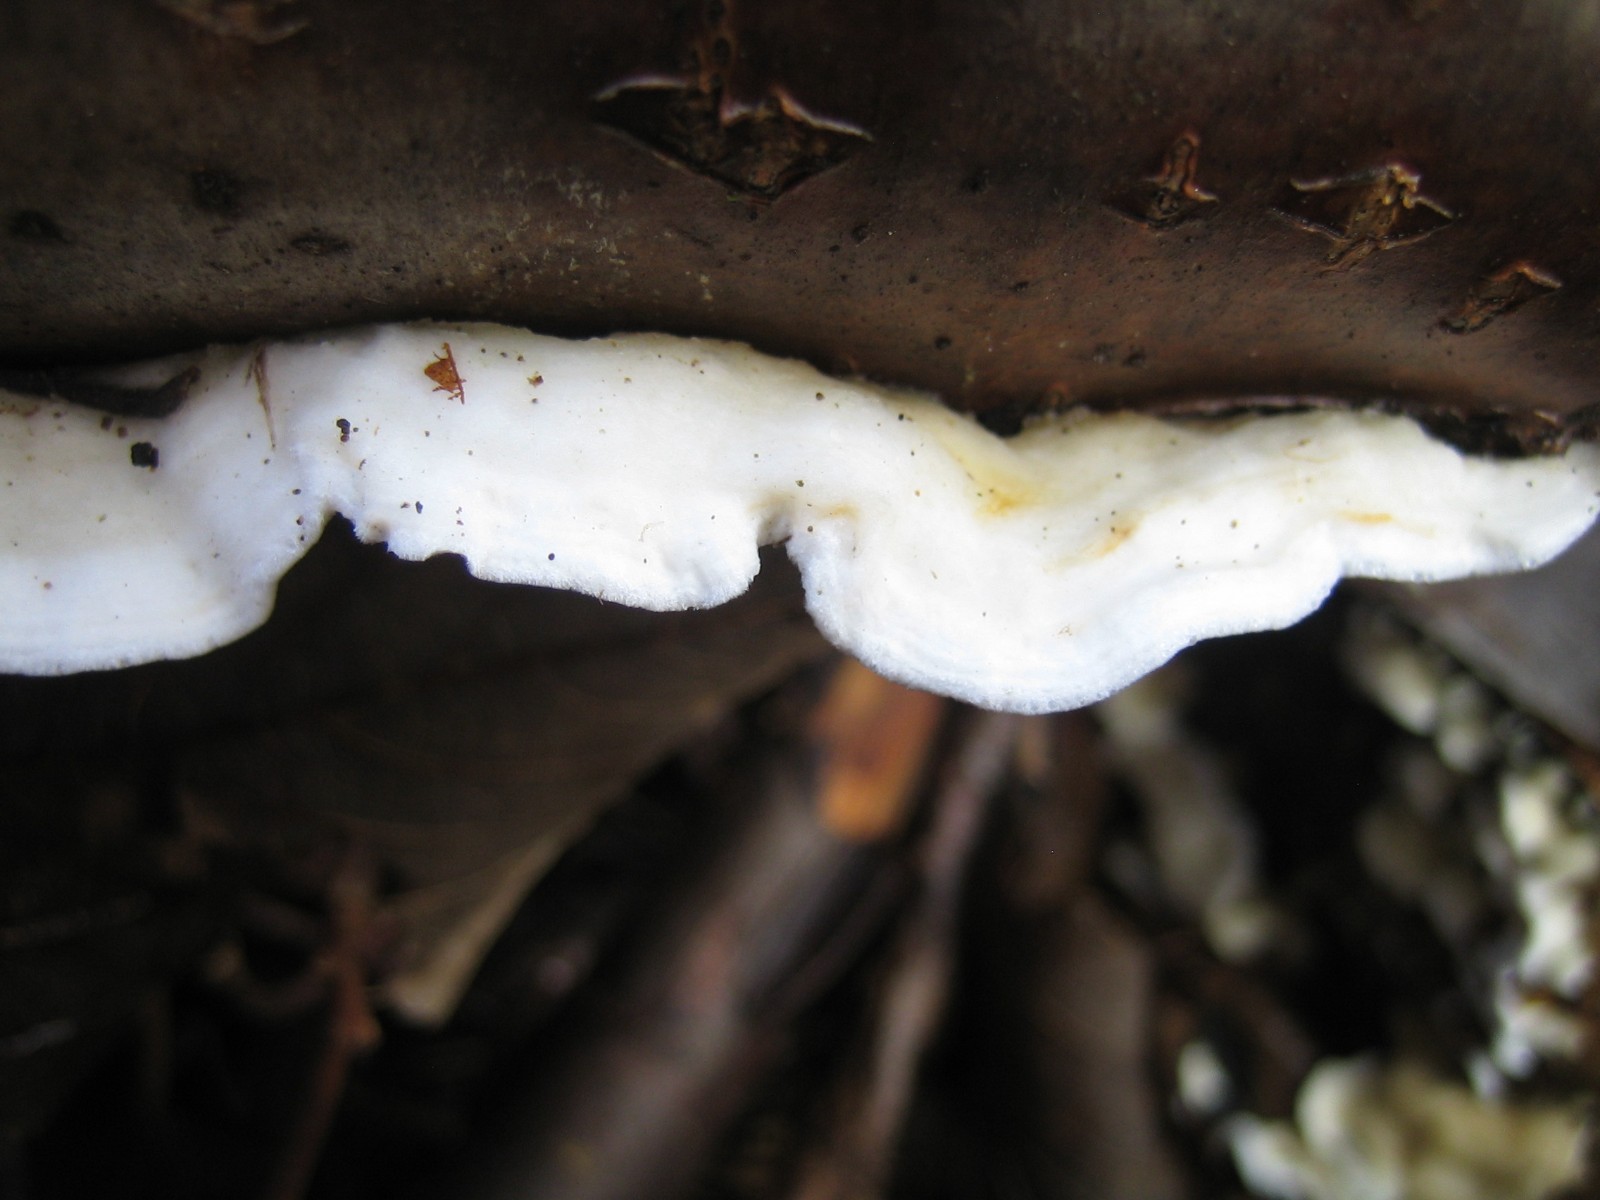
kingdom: Fungi
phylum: Basidiomycota
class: Agaricomycetes
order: Polyporales
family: Irpicaceae
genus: Byssomerulius
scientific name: Byssomerulius corium
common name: læder-åresvamp
